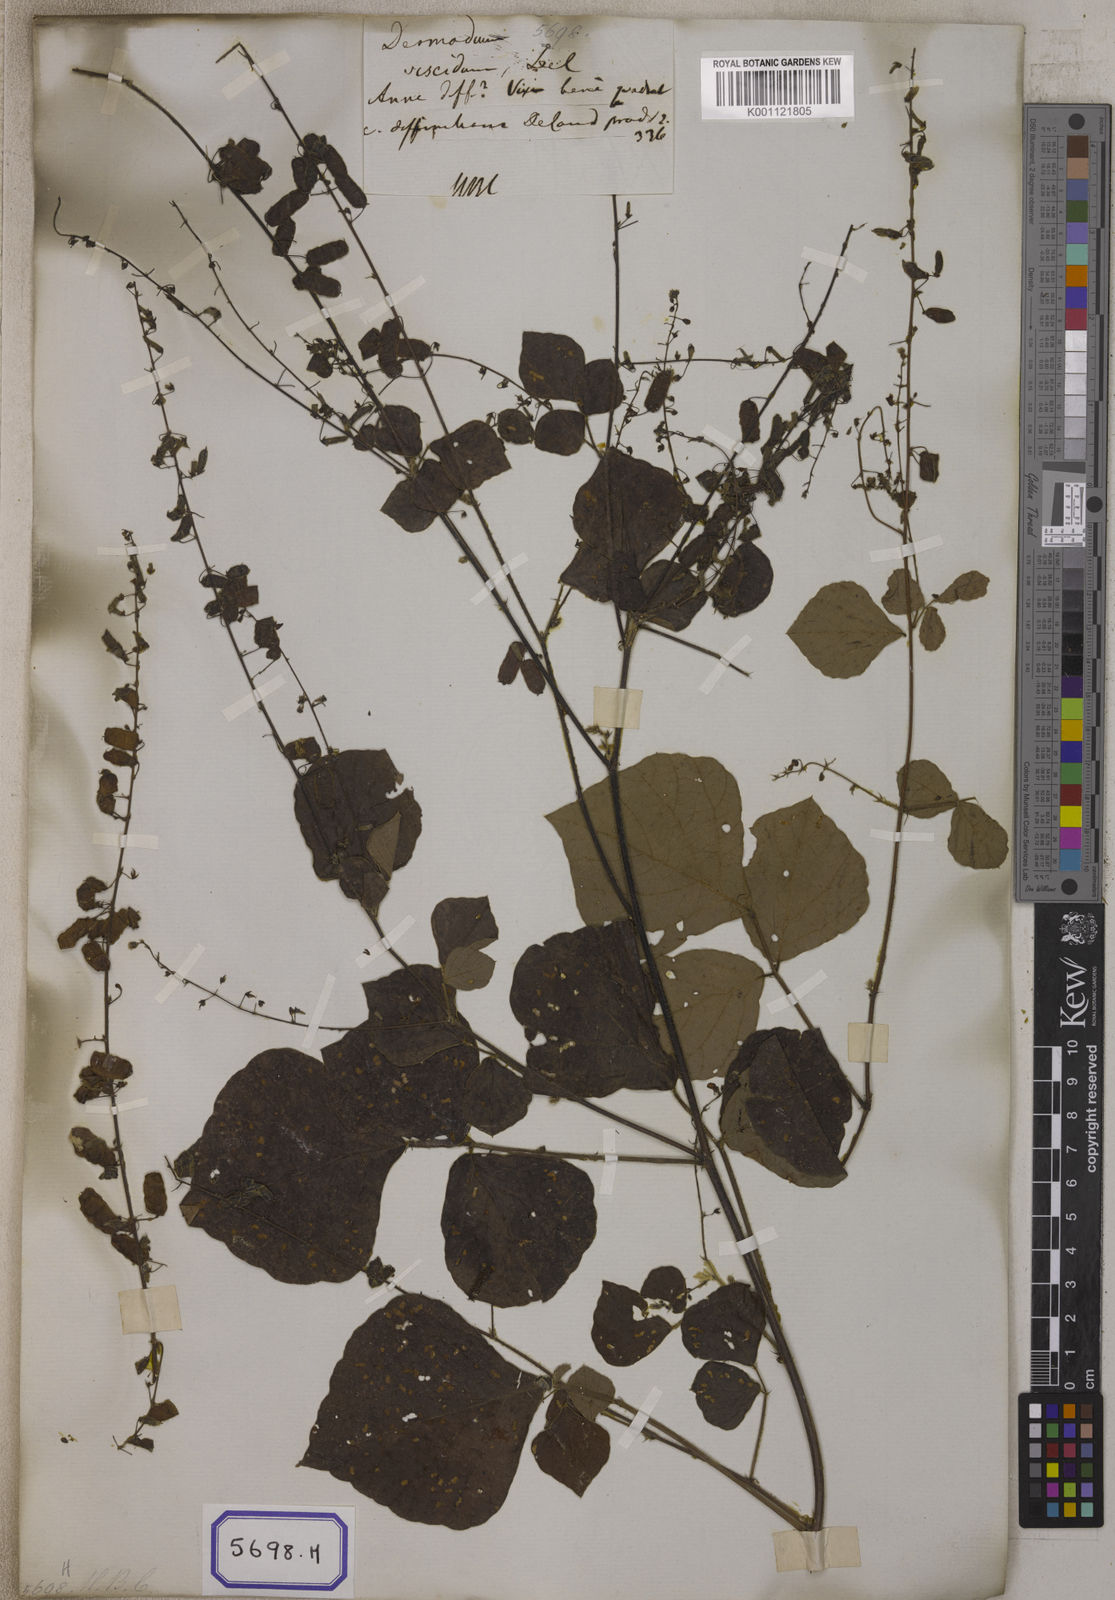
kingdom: Plantae
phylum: Tracheophyta
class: Magnoliopsida
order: Fabales
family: Fabaceae
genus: Pseudarthria
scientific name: Pseudarthria viscida
